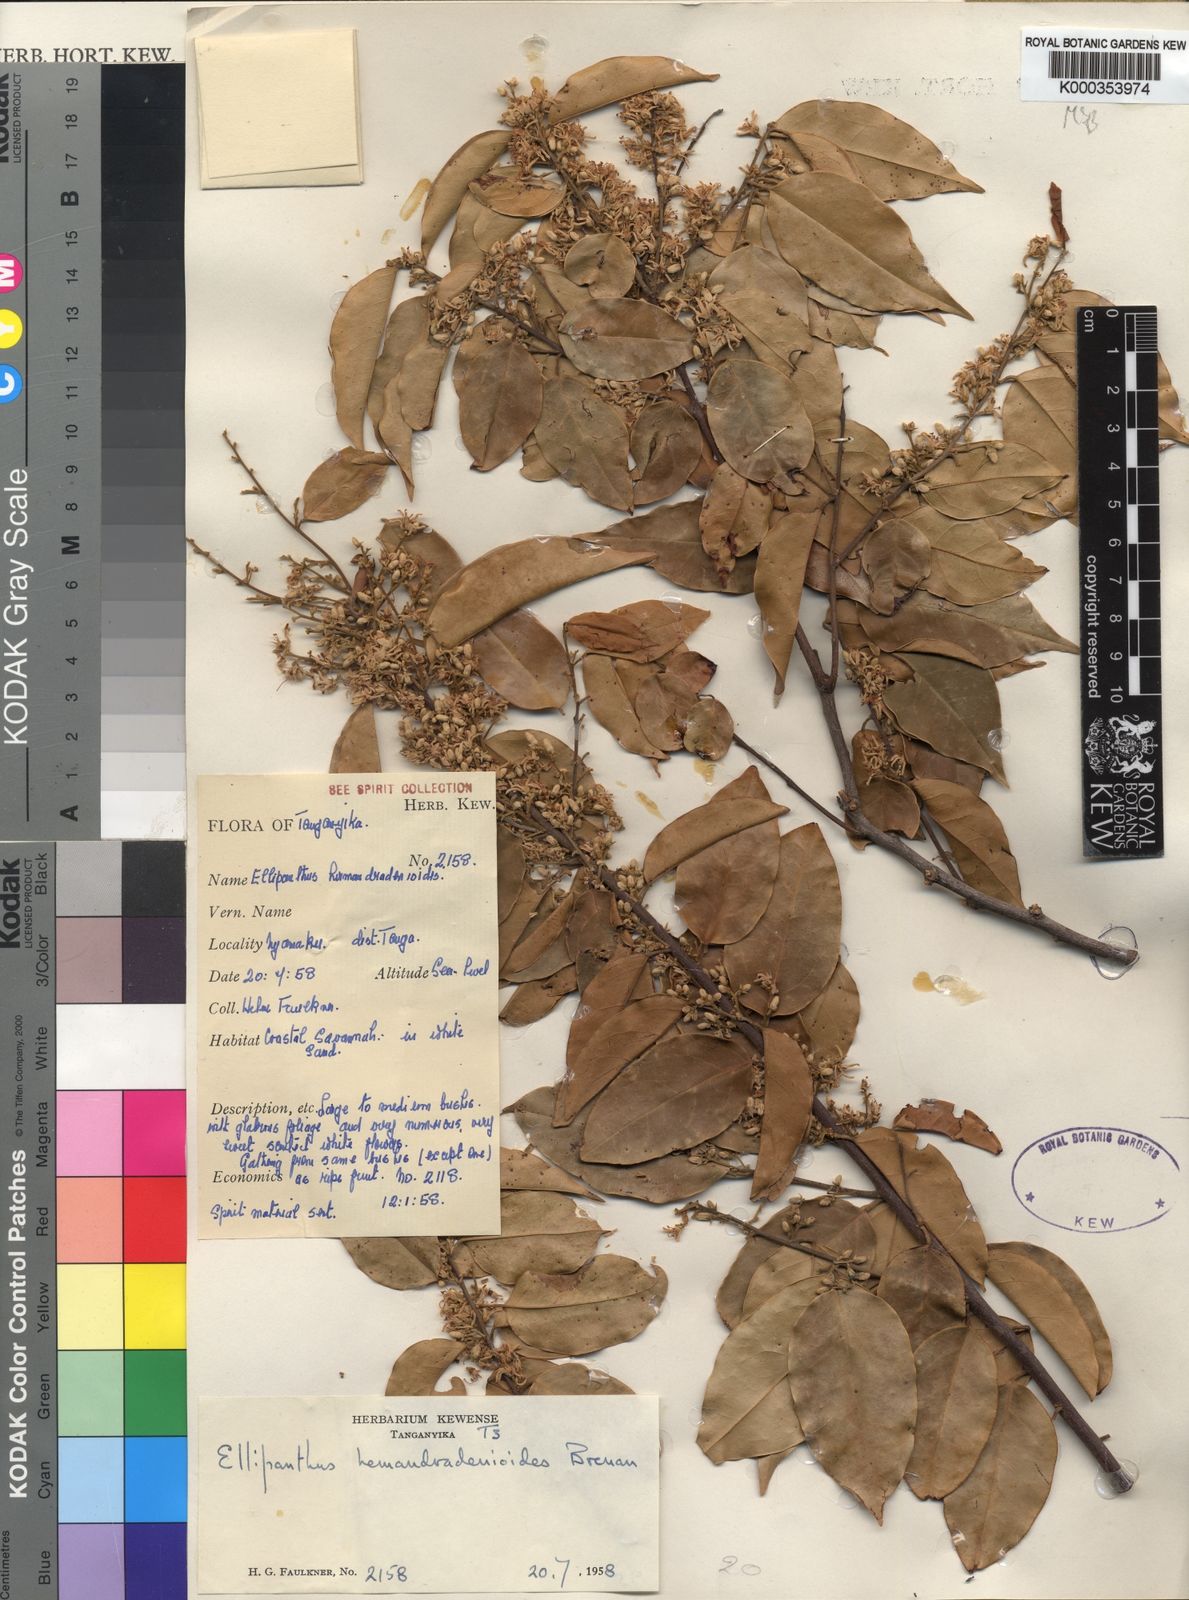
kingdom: Plantae
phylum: Tracheophyta
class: Magnoliopsida
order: Oxalidales
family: Connaraceae
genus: Ellipanthus
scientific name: Ellipanthus madagascariensis
